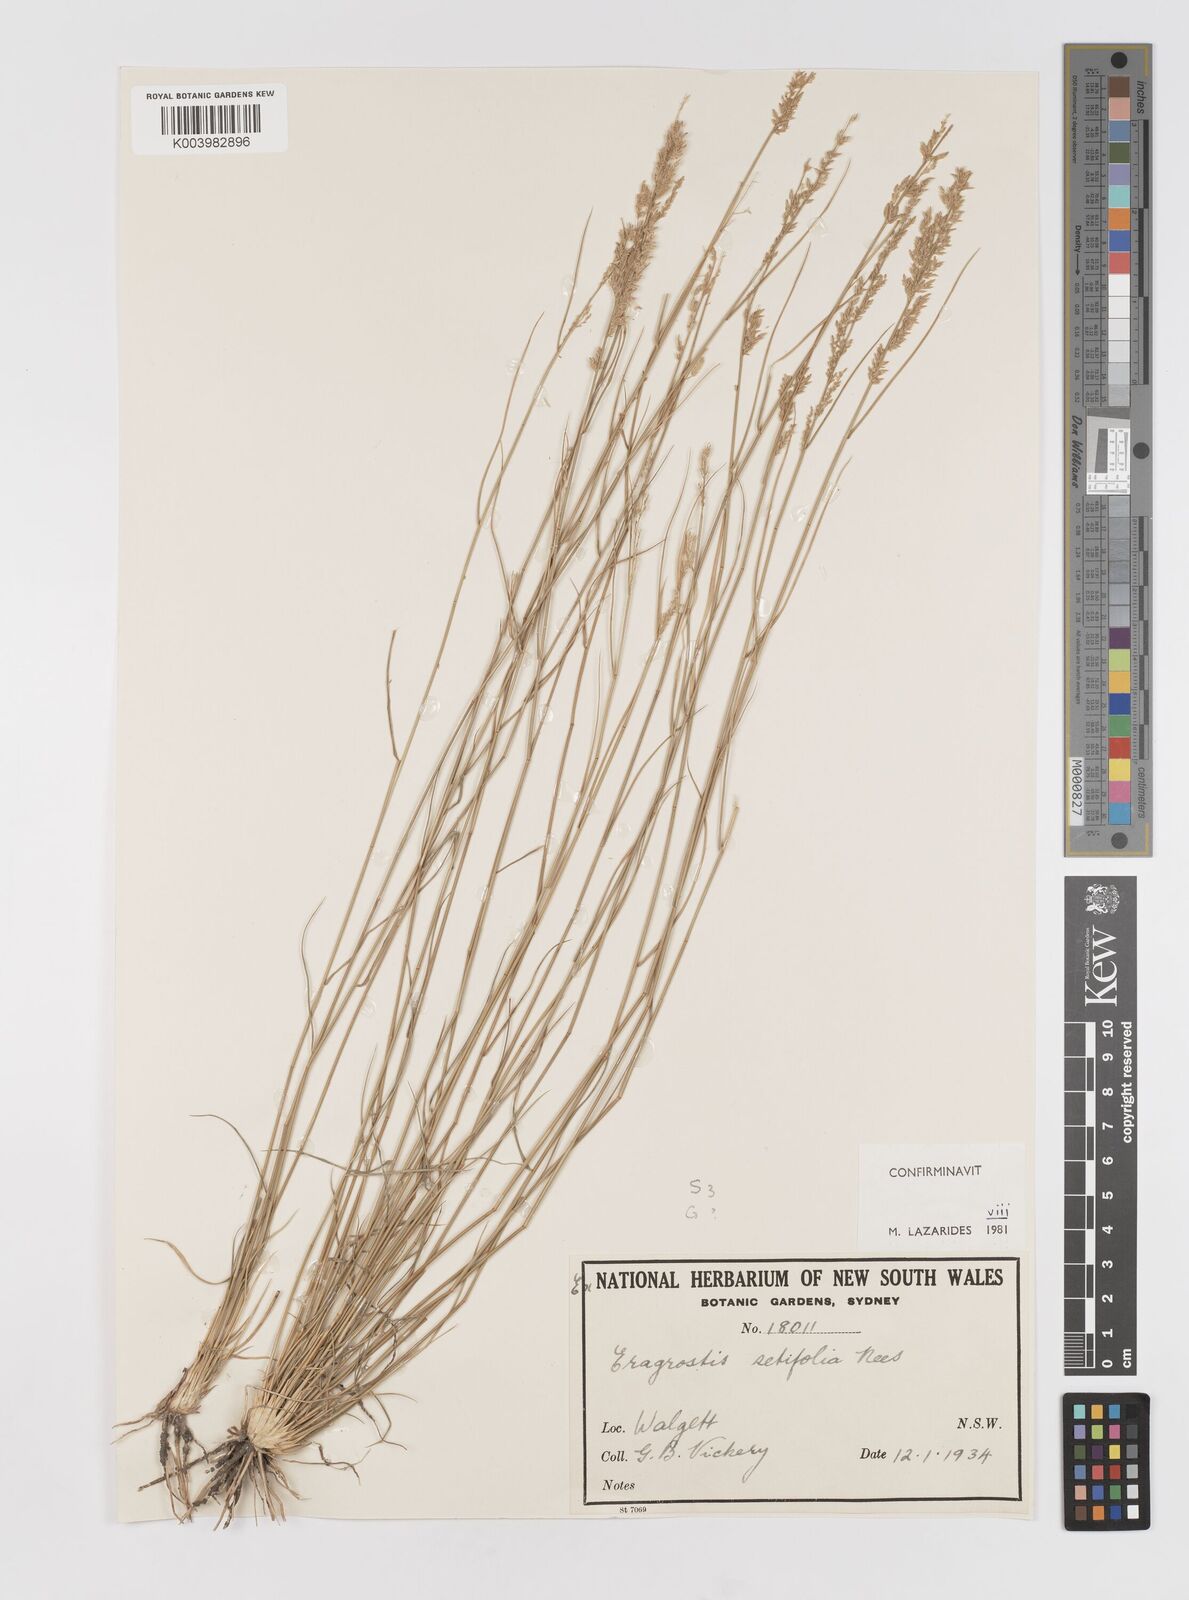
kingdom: Plantae
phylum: Tracheophyta
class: Liliopsida
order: Poales
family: Poaceae
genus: Eragrostis
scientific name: Eragrostis setifolia
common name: Bristleleaf lovegrass
